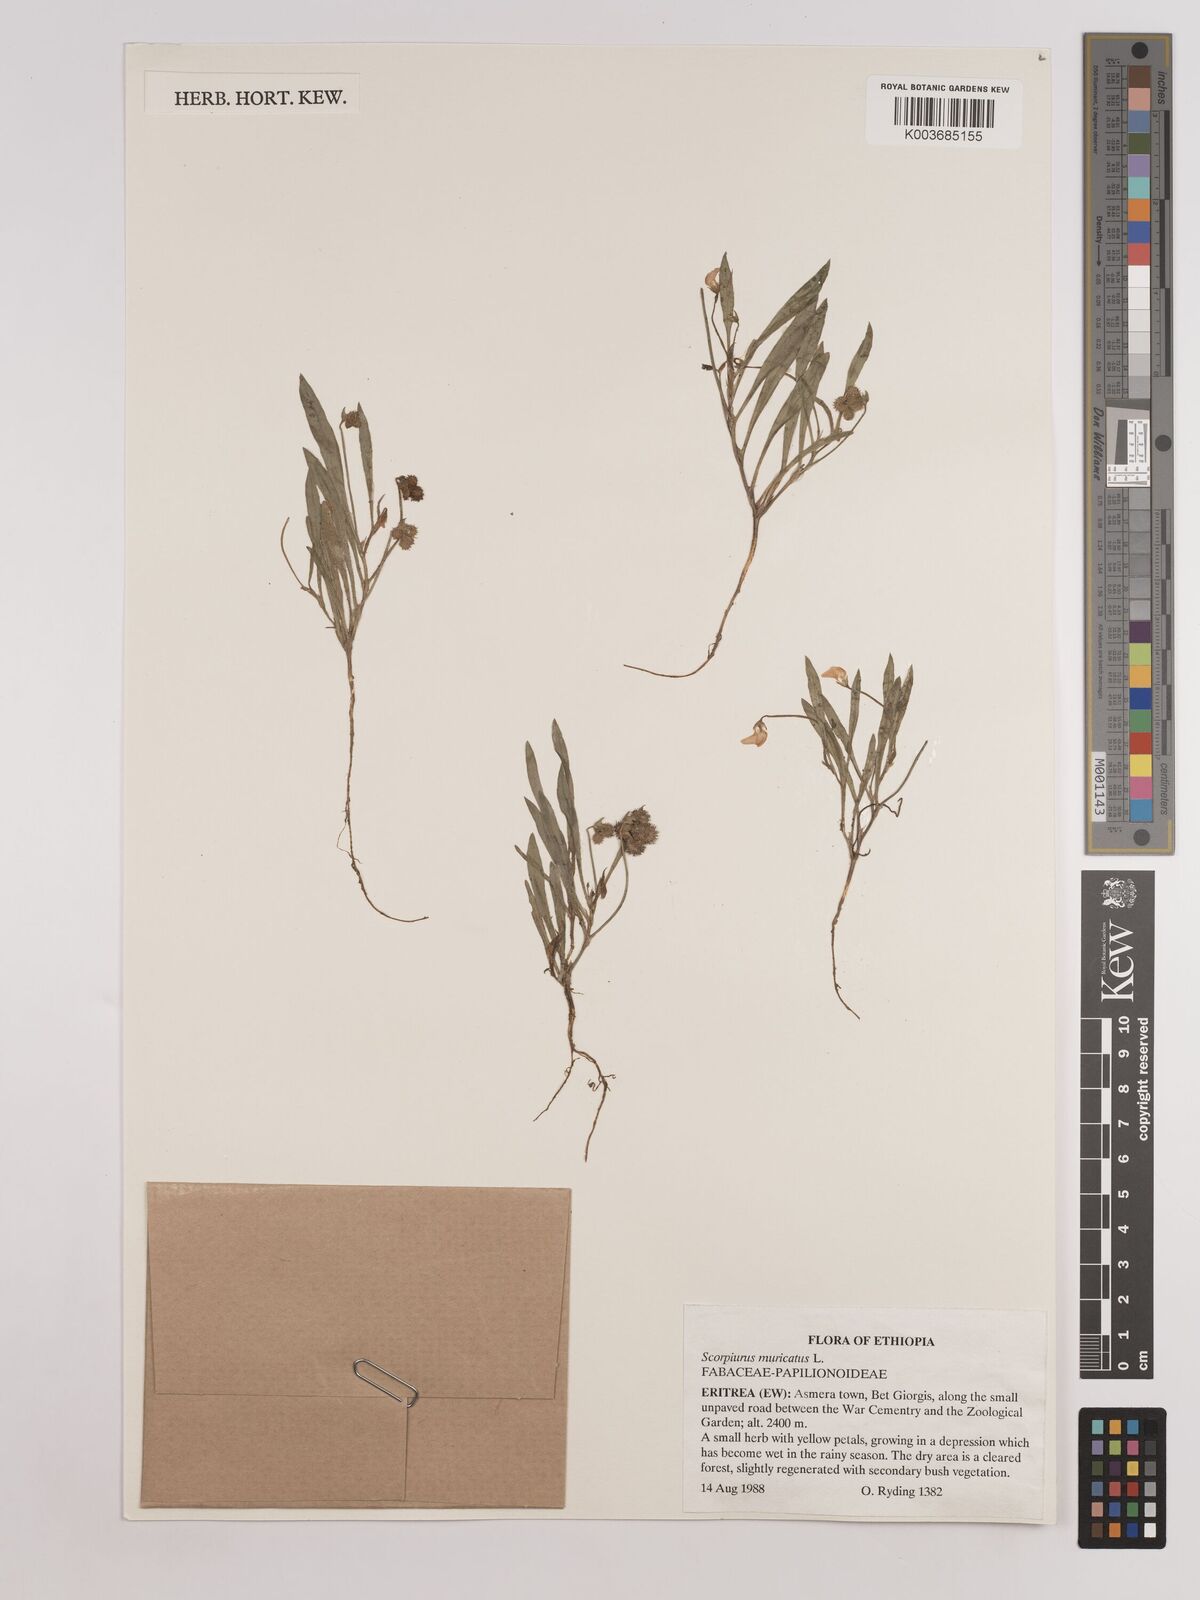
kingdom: Plantae
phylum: Tracheophyta
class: Magnoliopsida
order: Fabales
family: Fabaceae
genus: Scorpiurus
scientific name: Scorpiurus muricatus
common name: Caterpillar-plant
